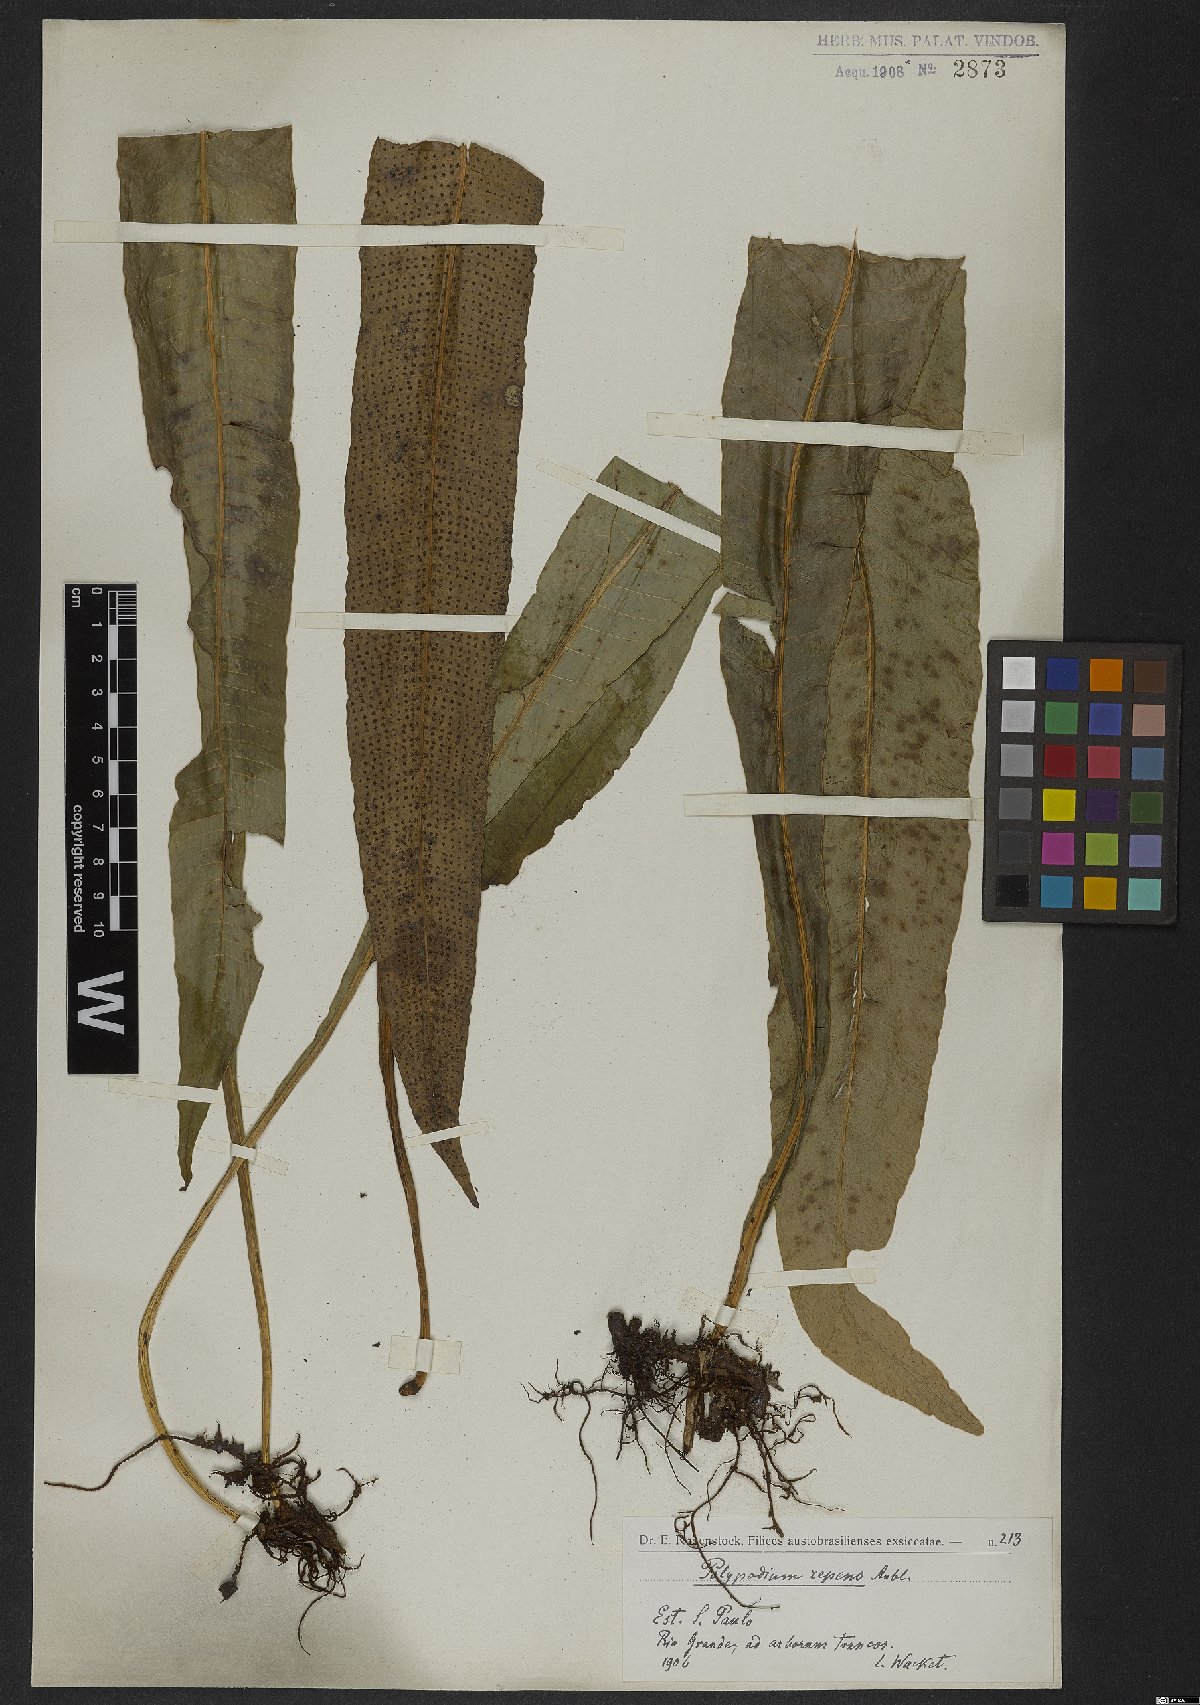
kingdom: Plantae
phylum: Tracheophyta
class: Polypodiopsida
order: Polypodiales
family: Polypodiaceae
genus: Campyloneurum
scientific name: Campyloneurum repens
